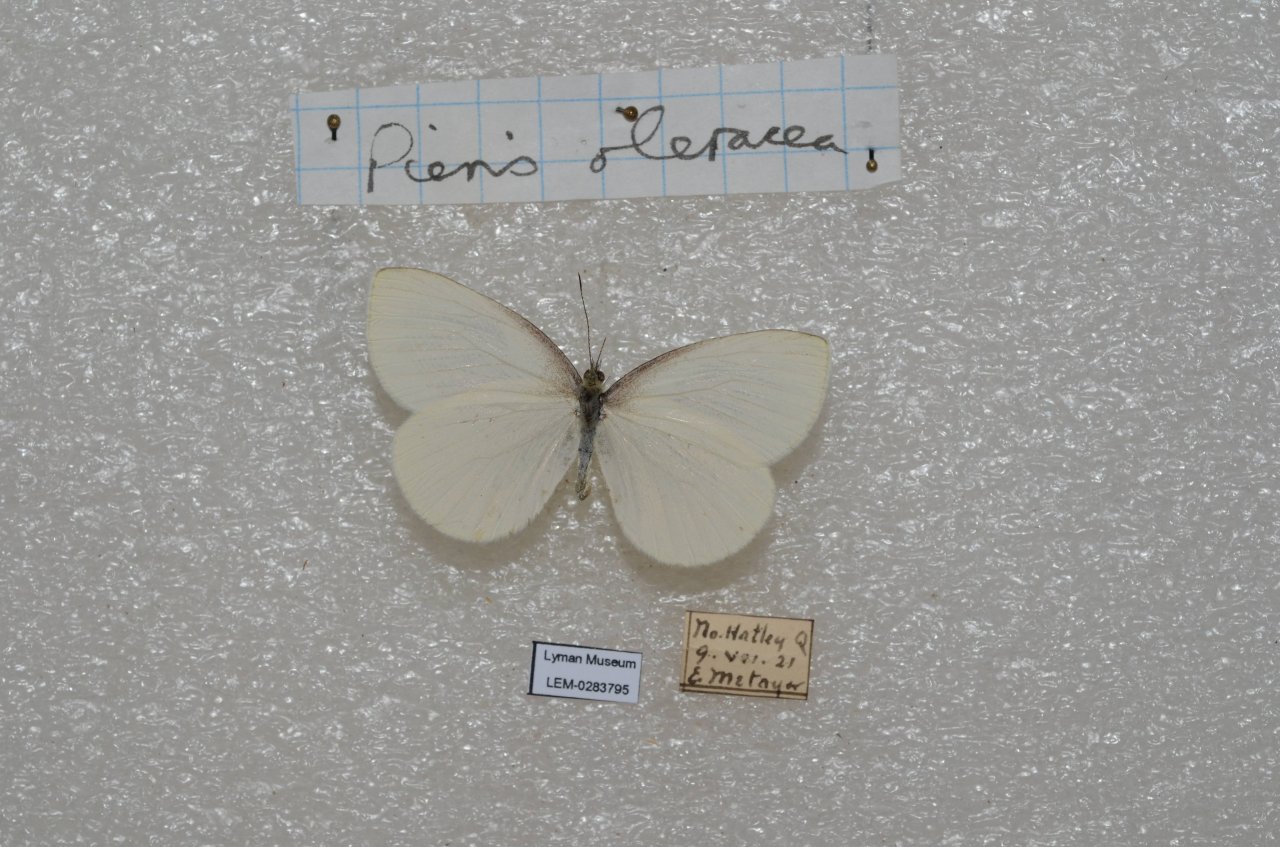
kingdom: Animalia
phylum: Arthropoda
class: Insecta
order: Lepidoptera
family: Pieridae
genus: Pieris
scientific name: Pieris oleracea
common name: Mustard White
